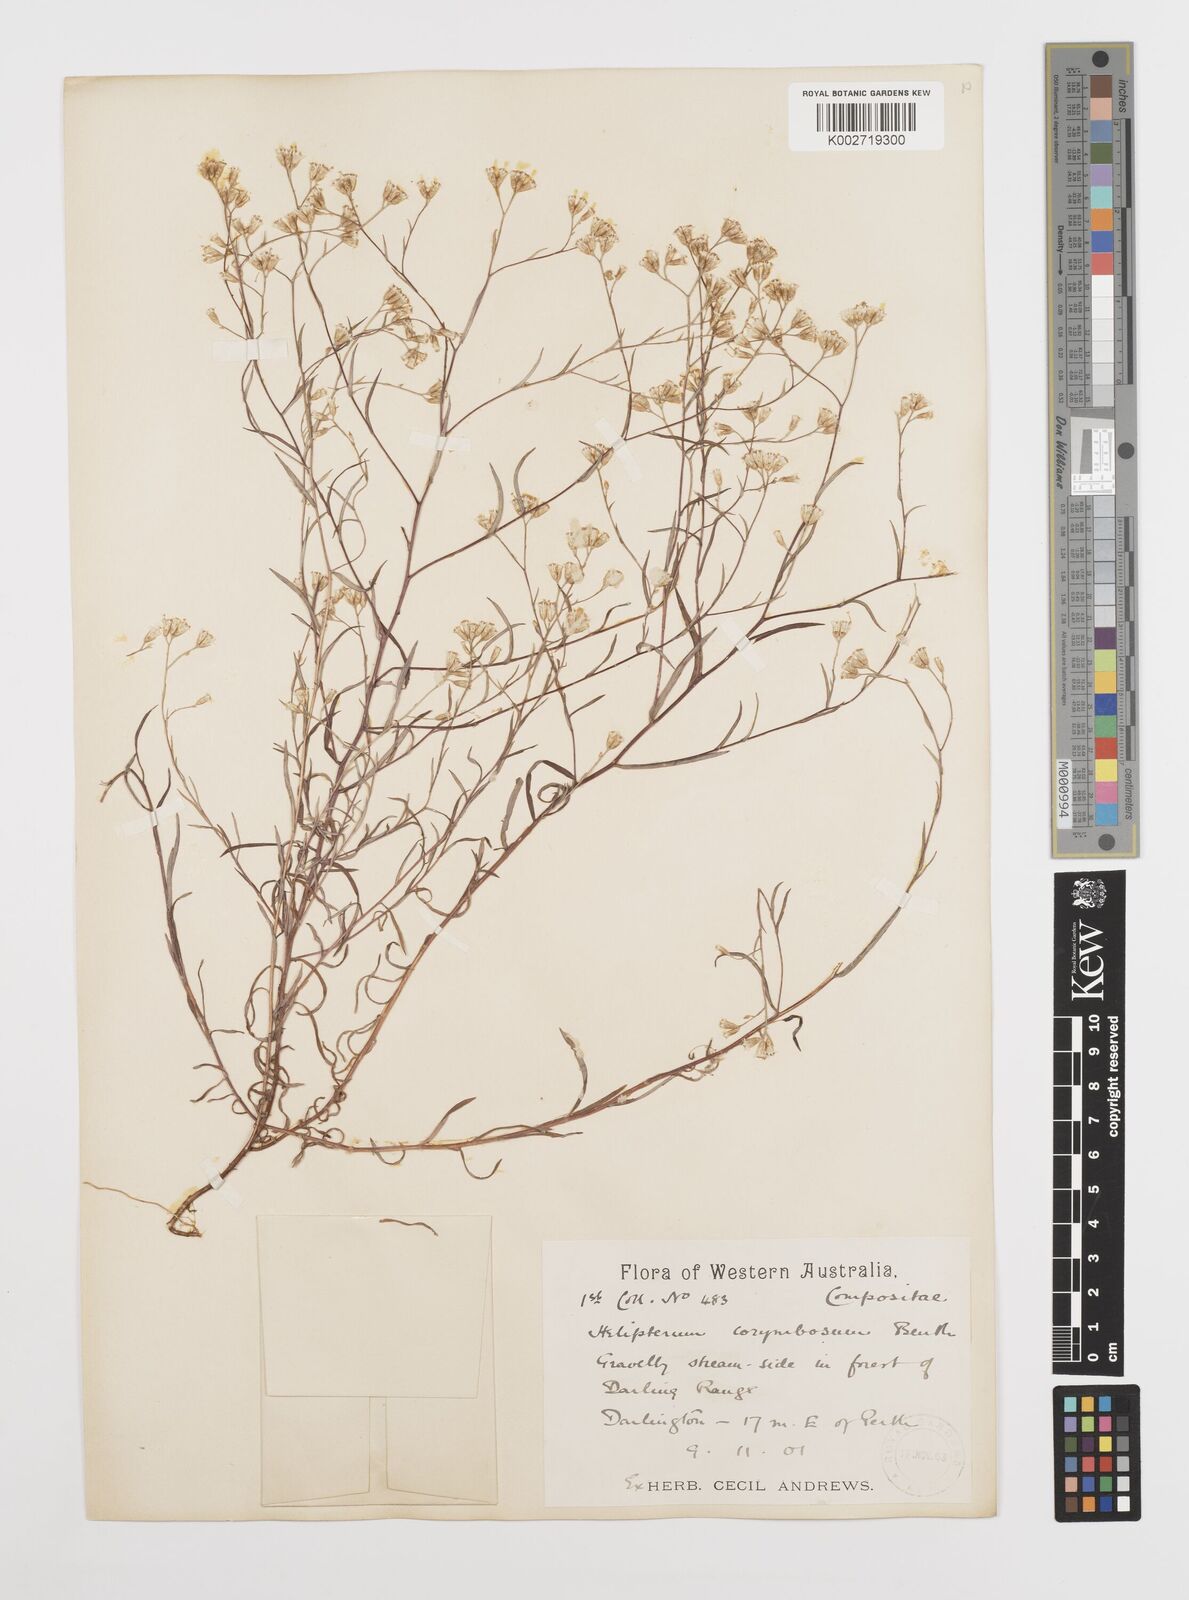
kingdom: Plantae
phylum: Tracheophyta
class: Magnoliopsida
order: Asterales
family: Asteraceae
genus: Rhodanthe
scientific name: Rhodanthe corymbosa
